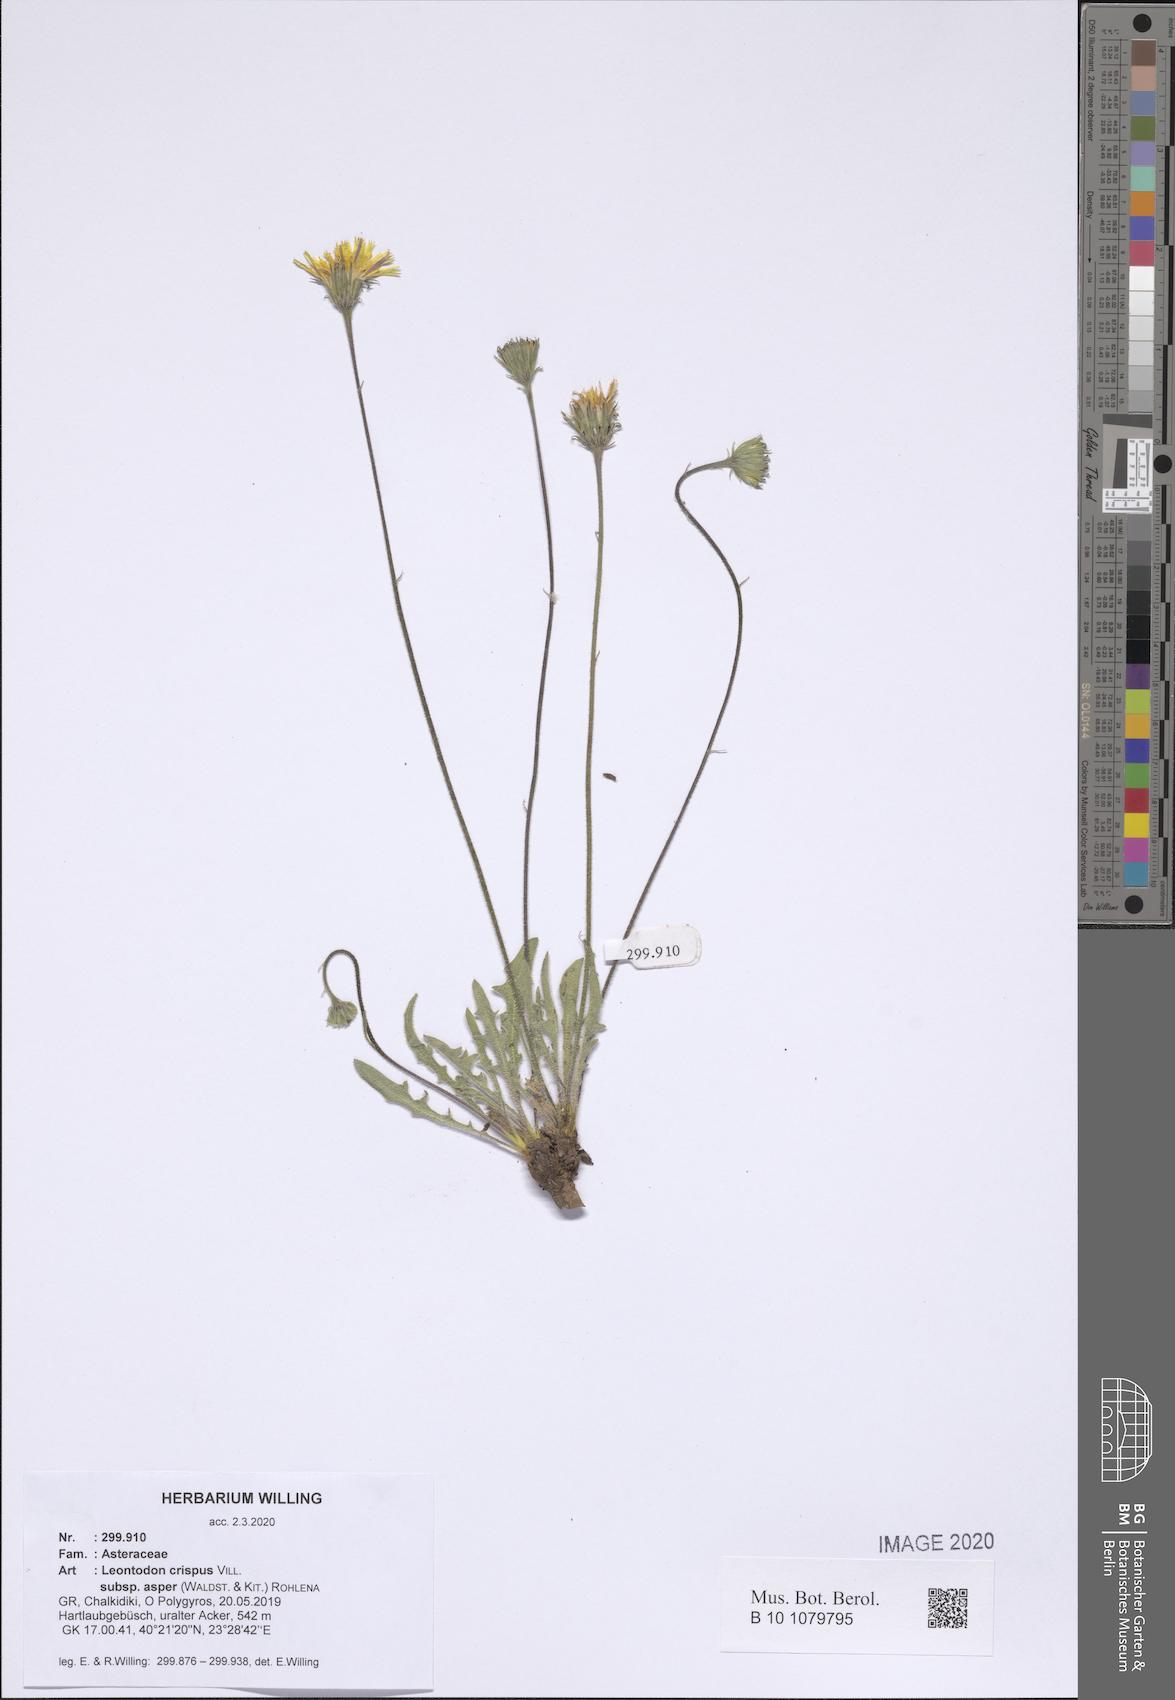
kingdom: Plantae
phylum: Tracheophyta
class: Magnoliopsida
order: Asterales
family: Asteraceae
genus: Leontodon
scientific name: Leontodon biscutellifolius
